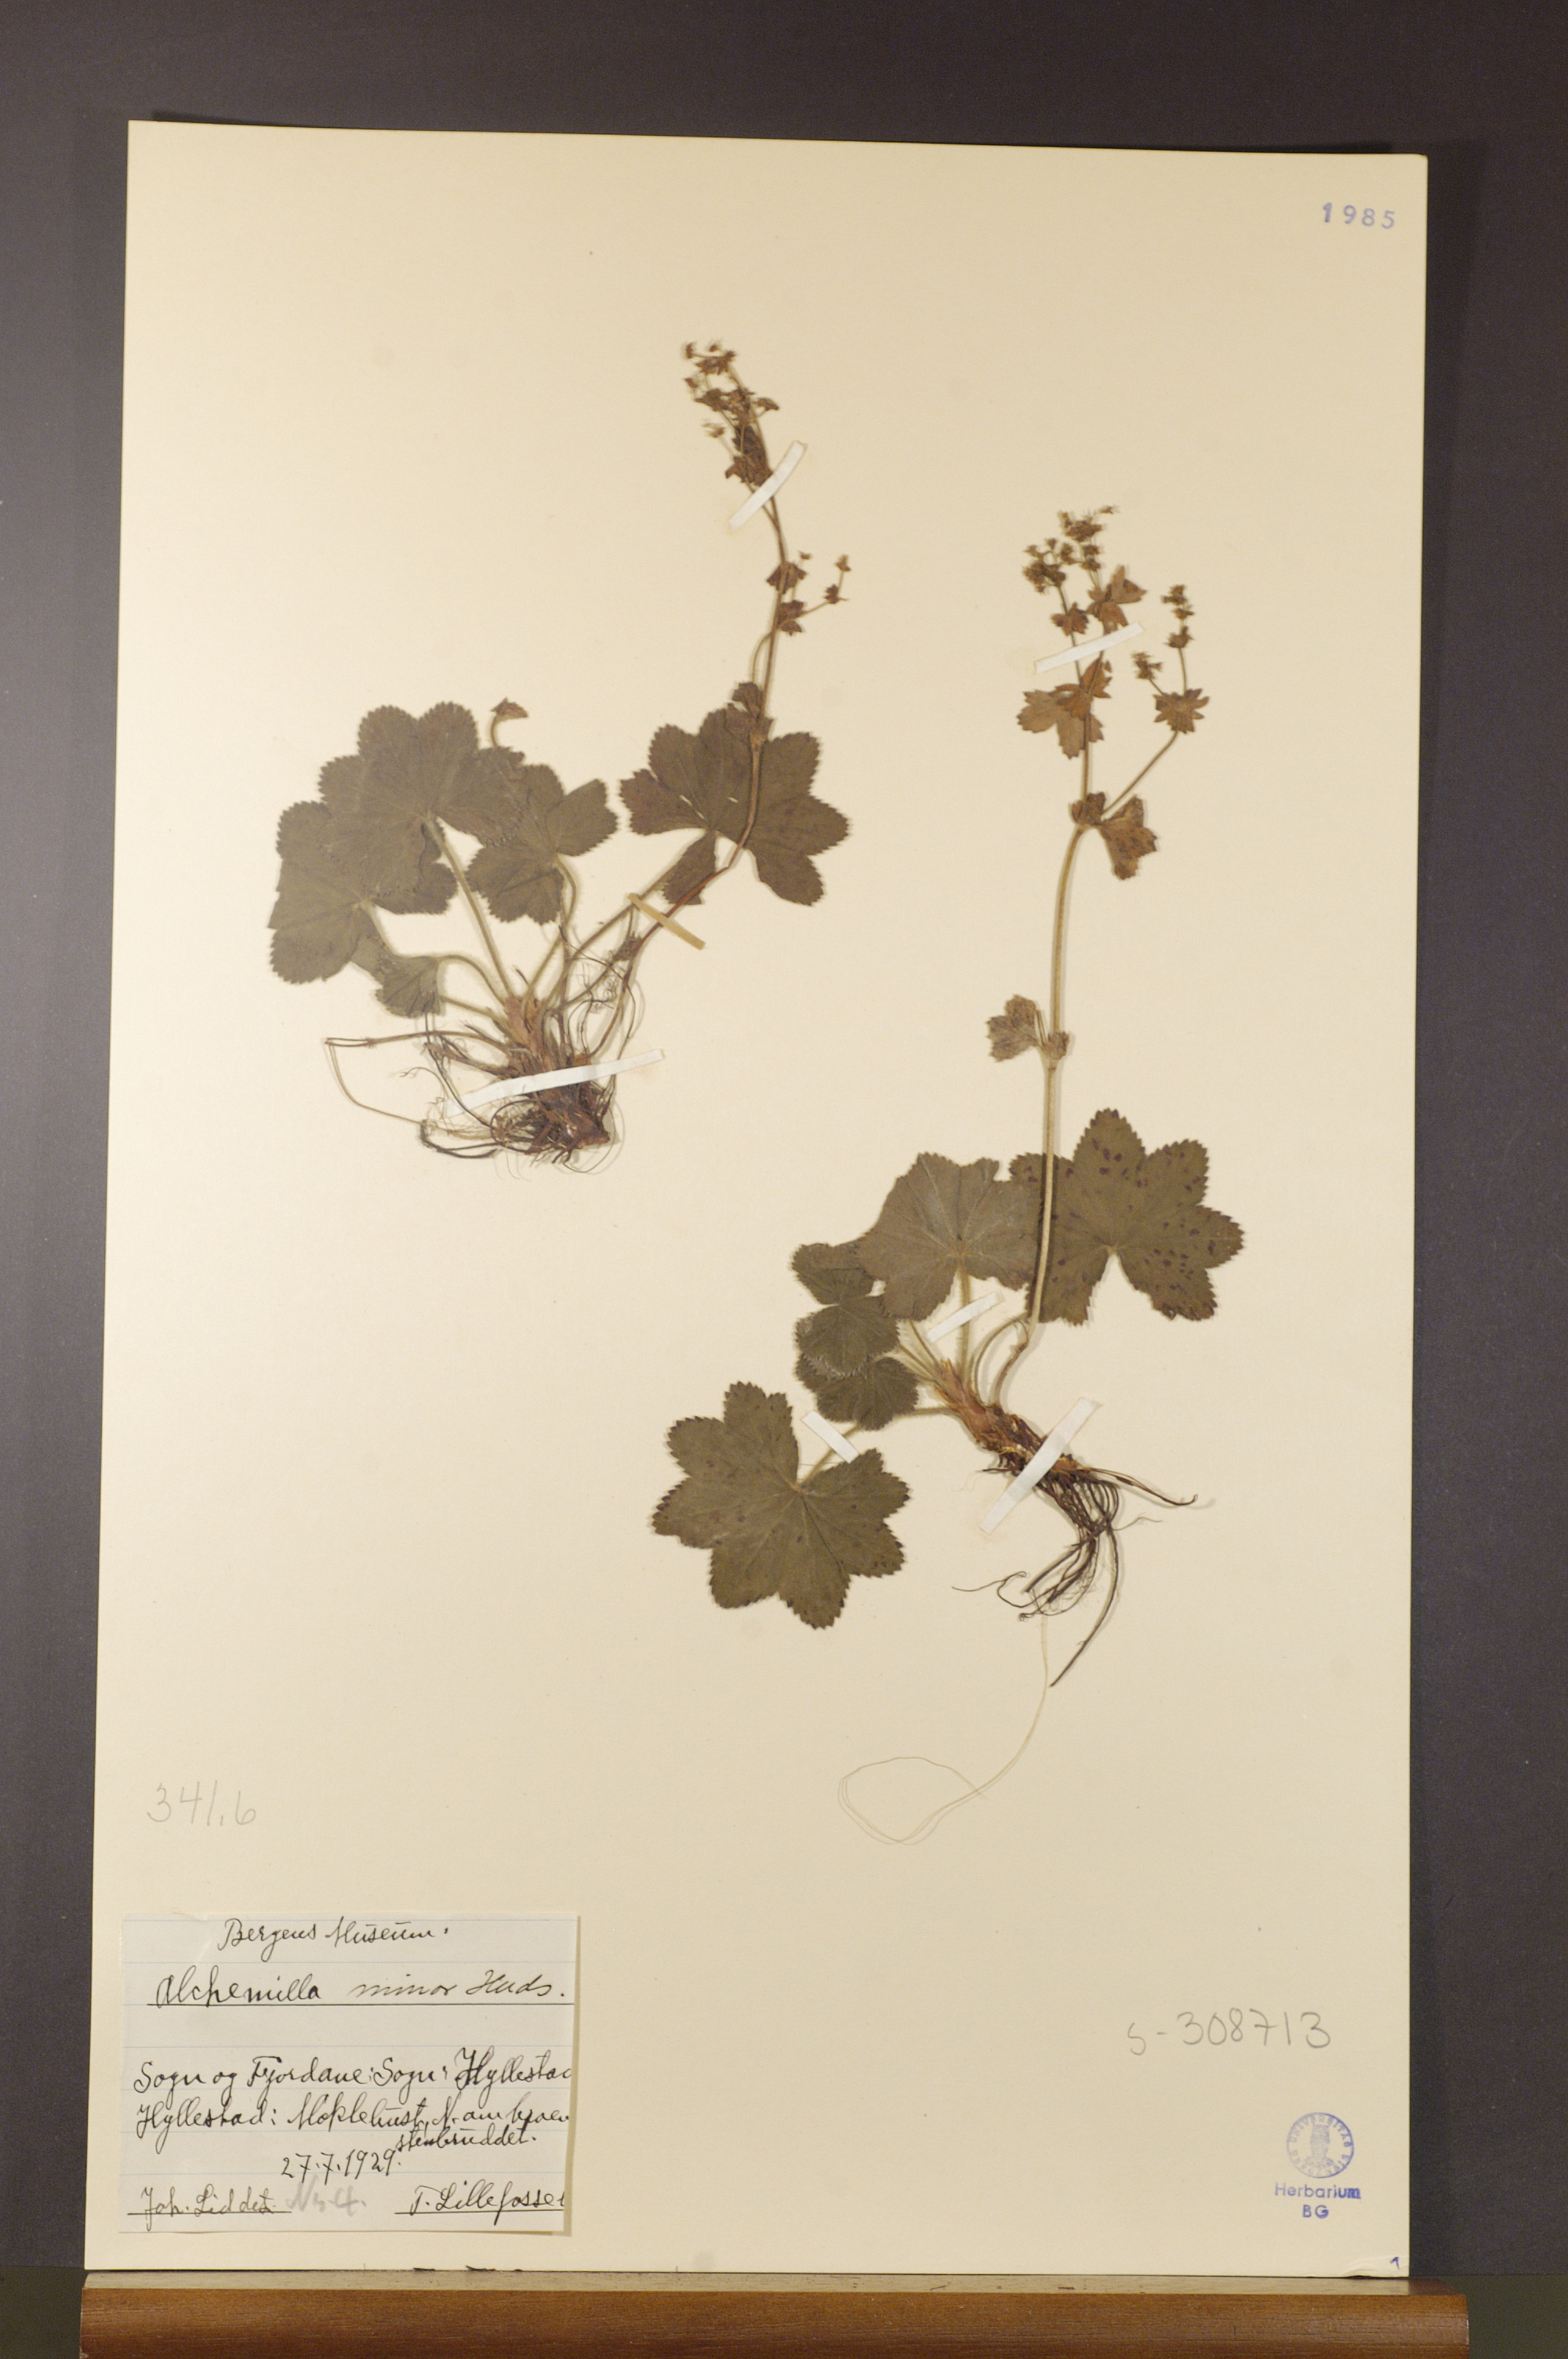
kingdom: Plantae
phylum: Tracheophyta
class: Magnoliopsida
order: Rosales
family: Rosaceae
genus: Alchemilla
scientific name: Alchemilla filicaulis
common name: Hairy lady's-mantle
